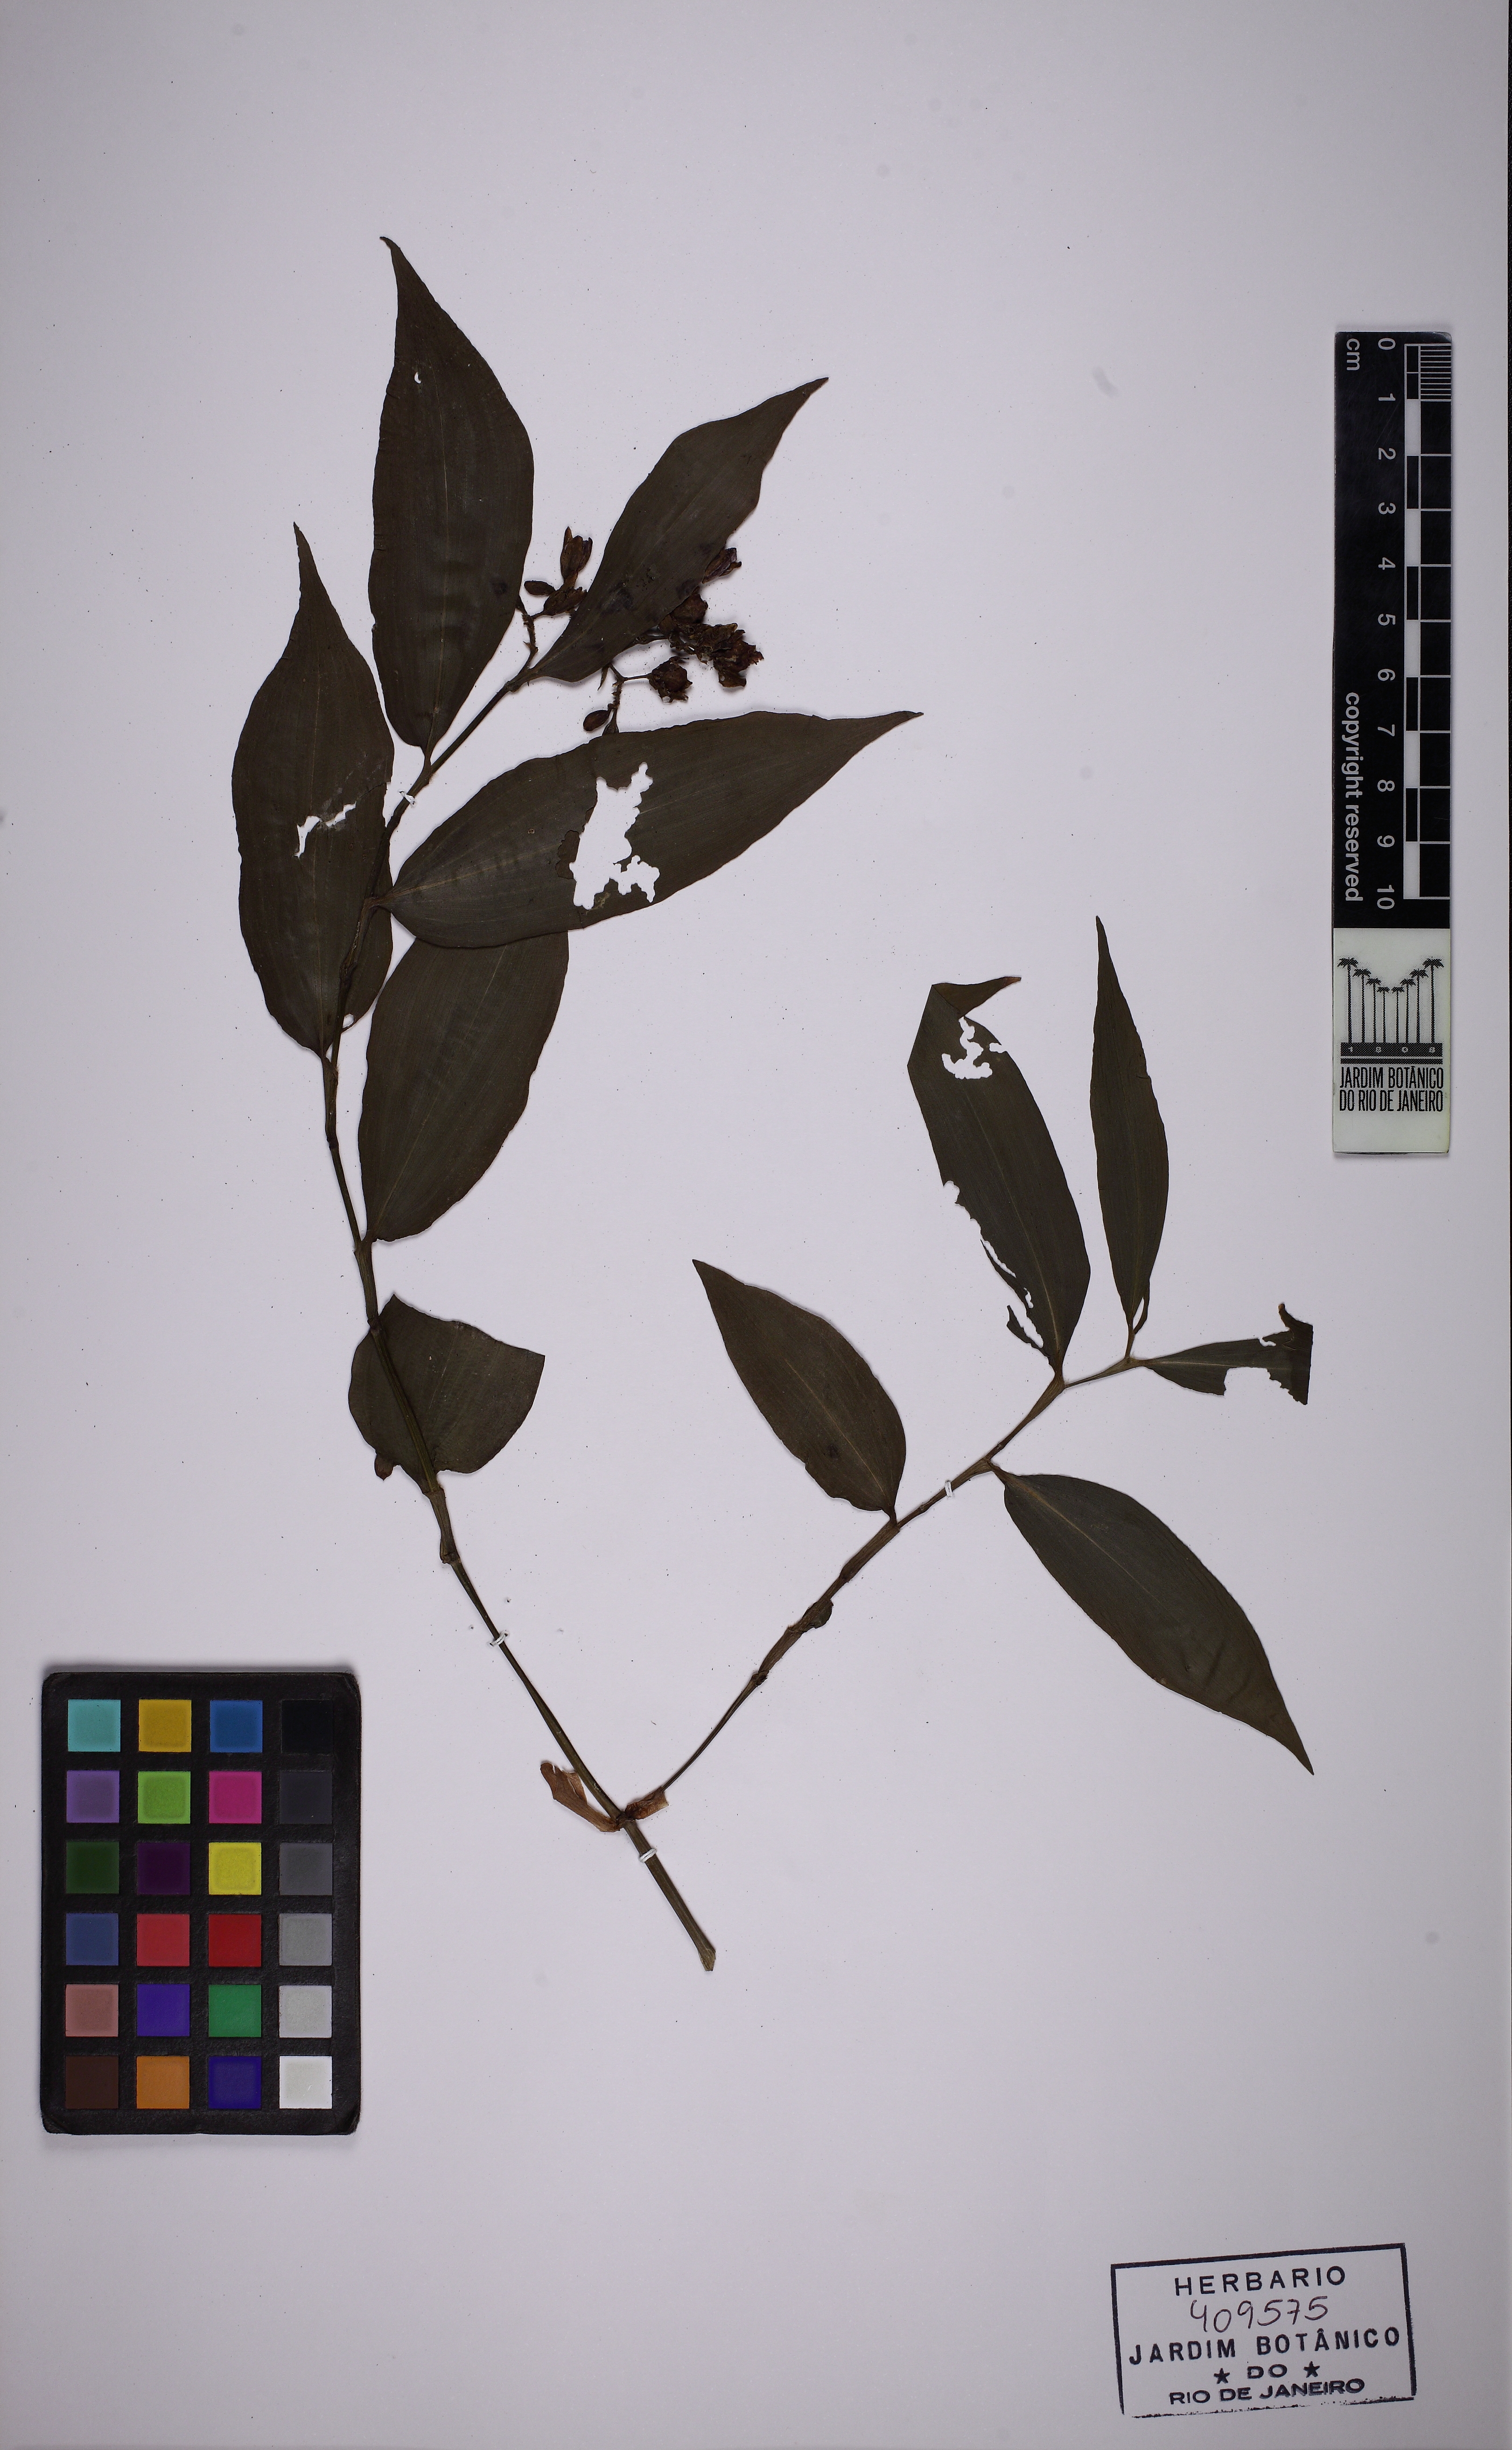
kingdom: Plantae
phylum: Tracheophyta
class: Liliopsida
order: Commelinales
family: Commelinaceae
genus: Dichorisandra
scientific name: Dichorisandra hexandra
